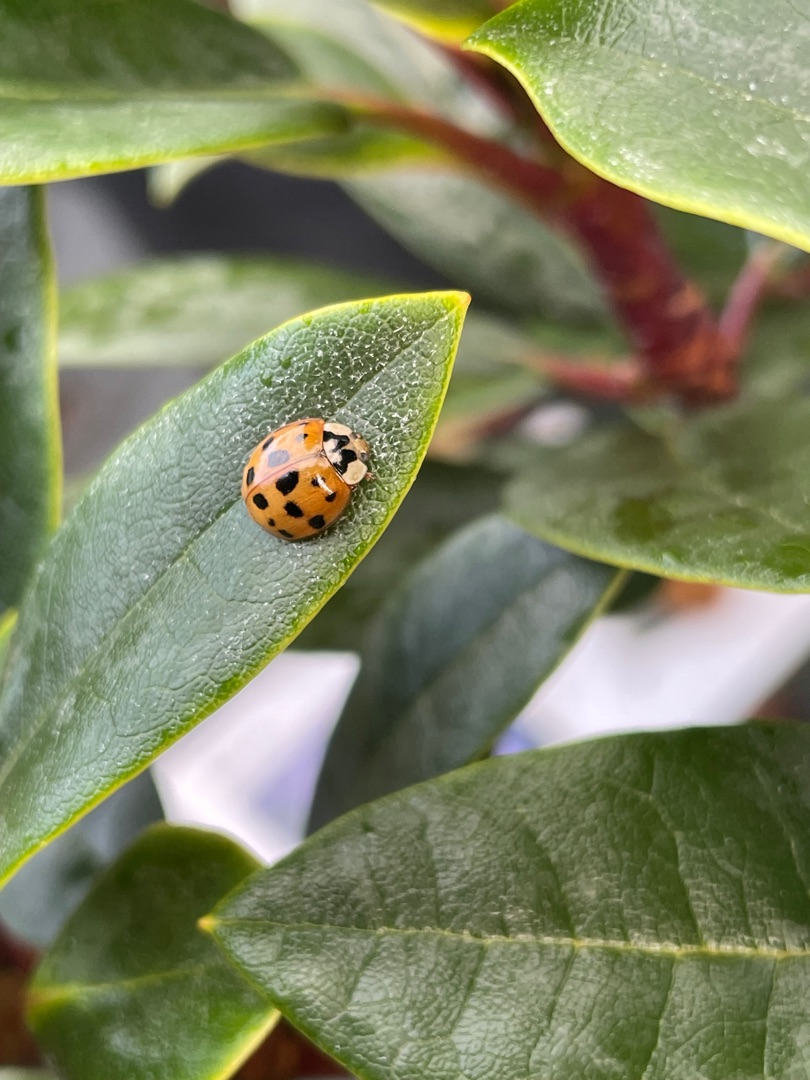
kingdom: Animalia
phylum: Arthropoda
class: Insecta
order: Coleoptera
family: Coccinellidae
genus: Harmonia
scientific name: Harmonia axyridis
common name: Harlekinmariehøne
